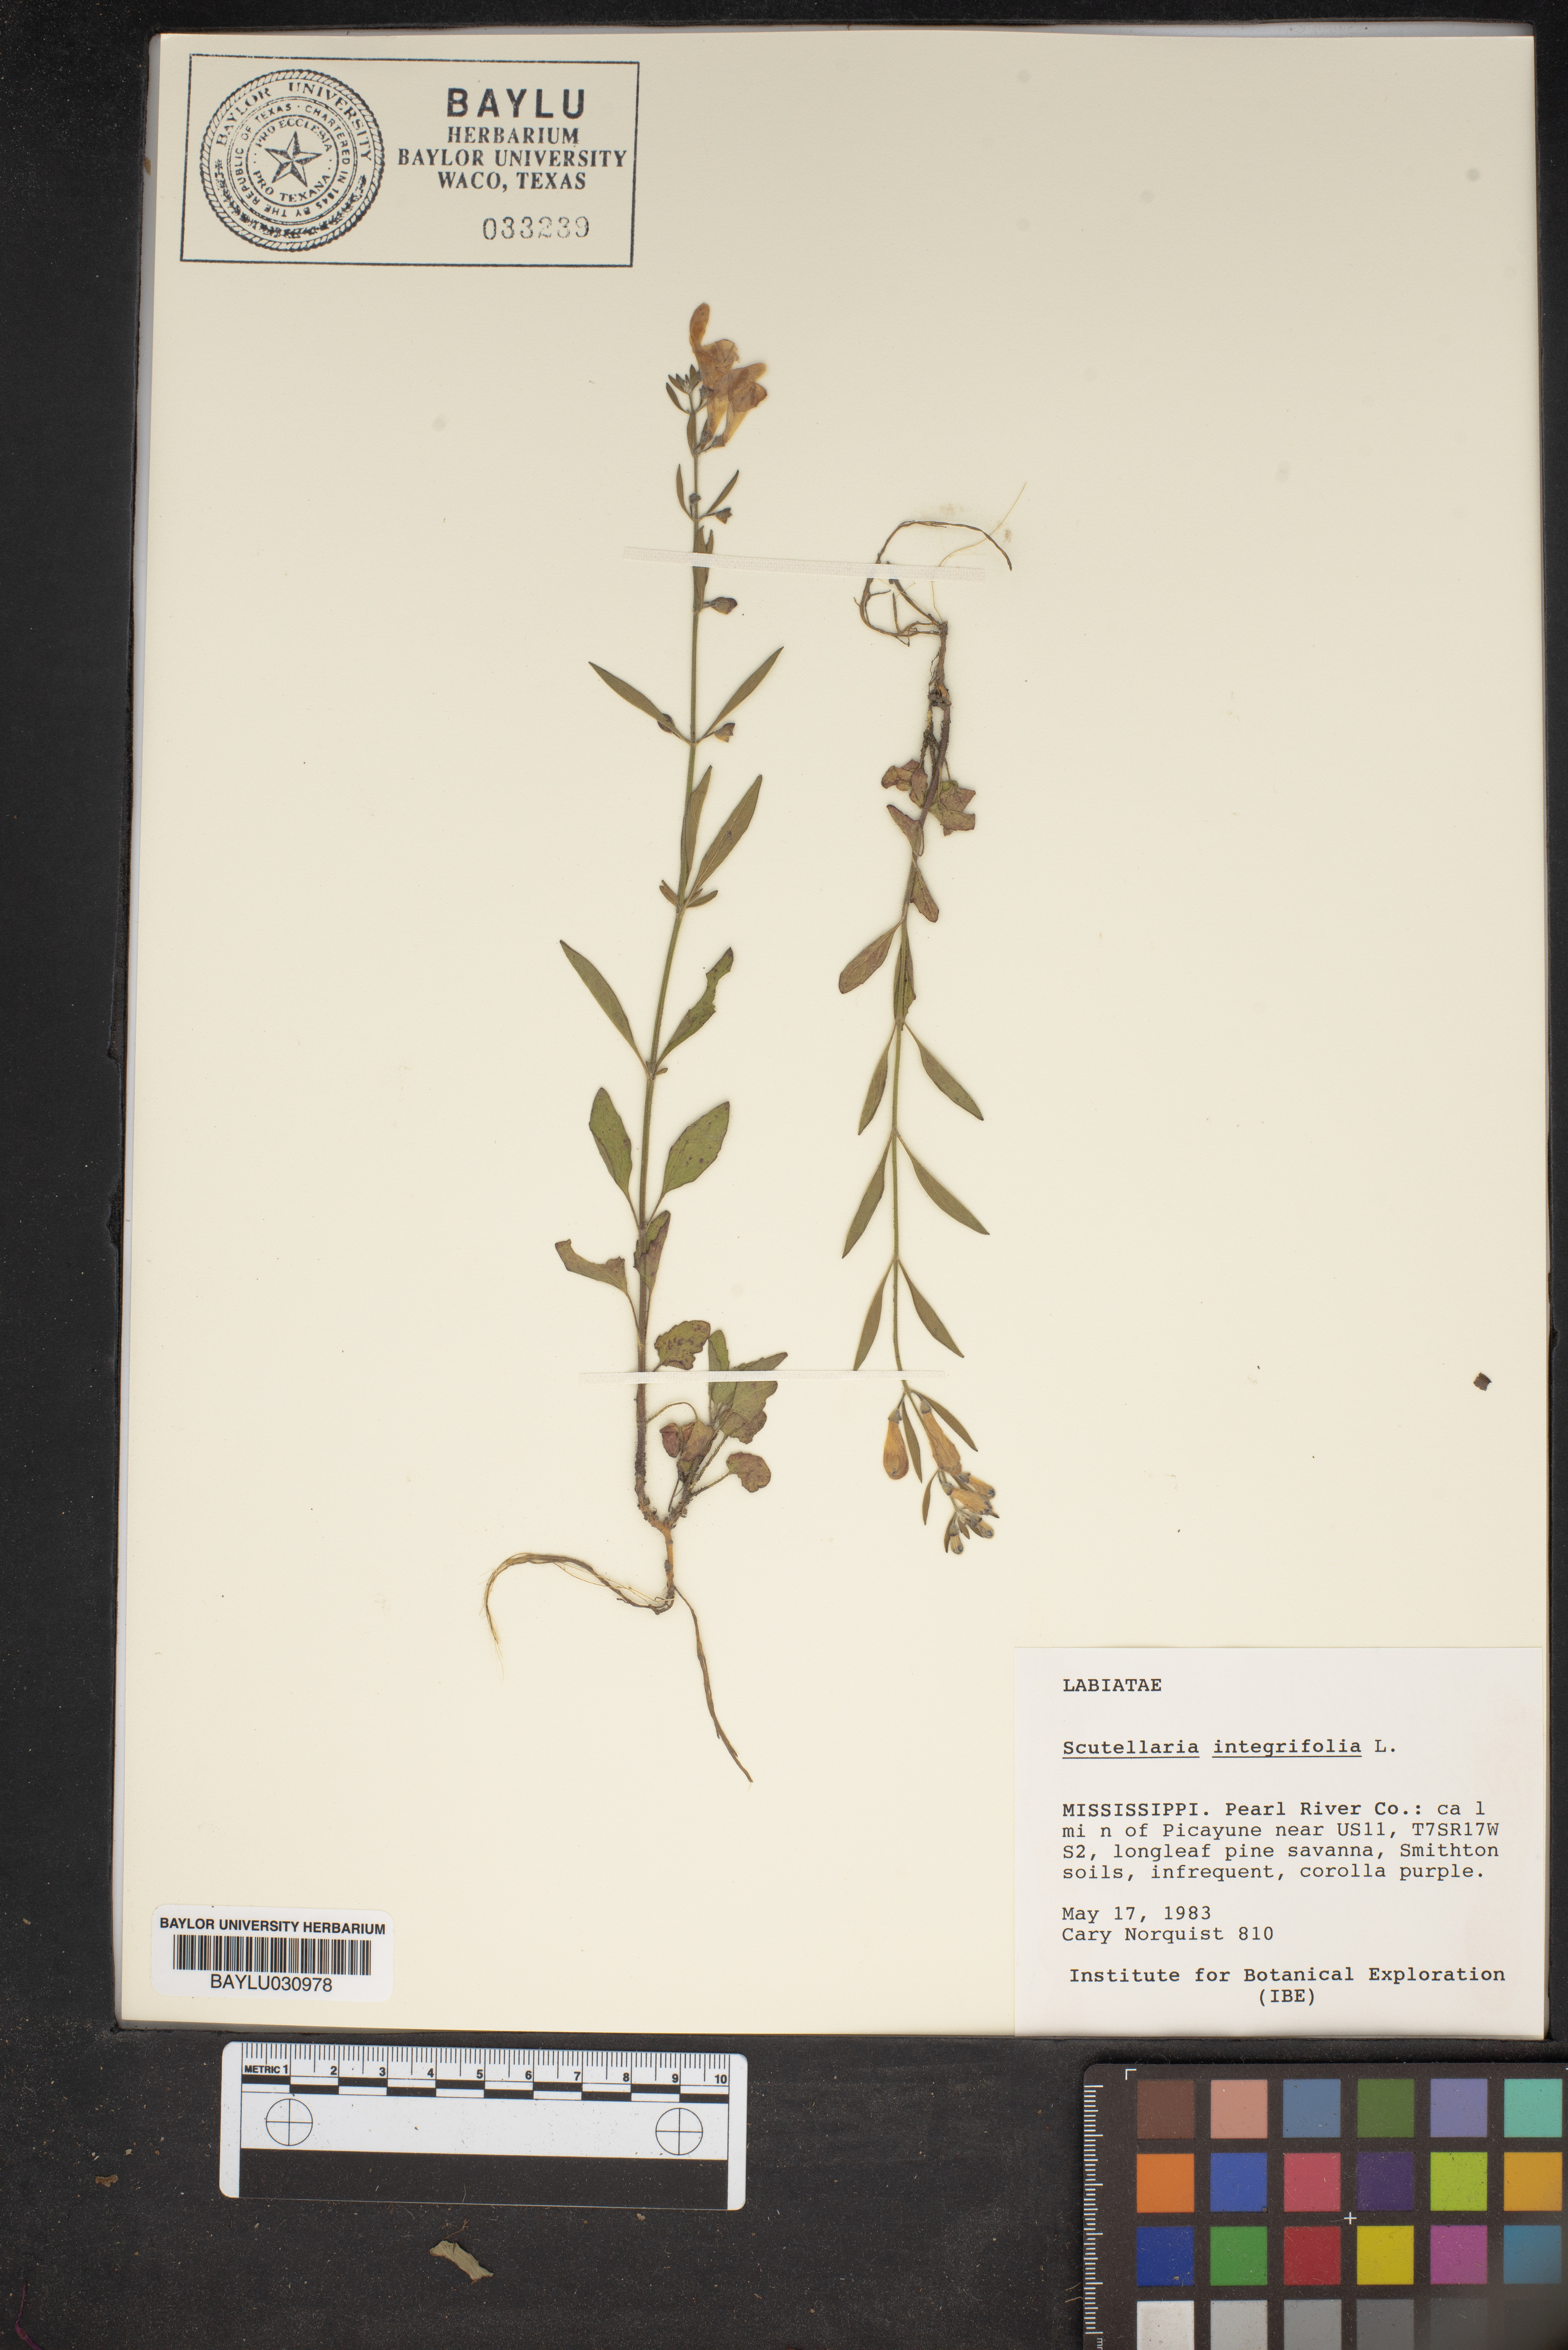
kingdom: Plantae
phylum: Tracheophyta
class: Magnoliopsida
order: Lamiales
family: Lamiaceae
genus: Scutellaria
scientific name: Scutellaria integrifolia
